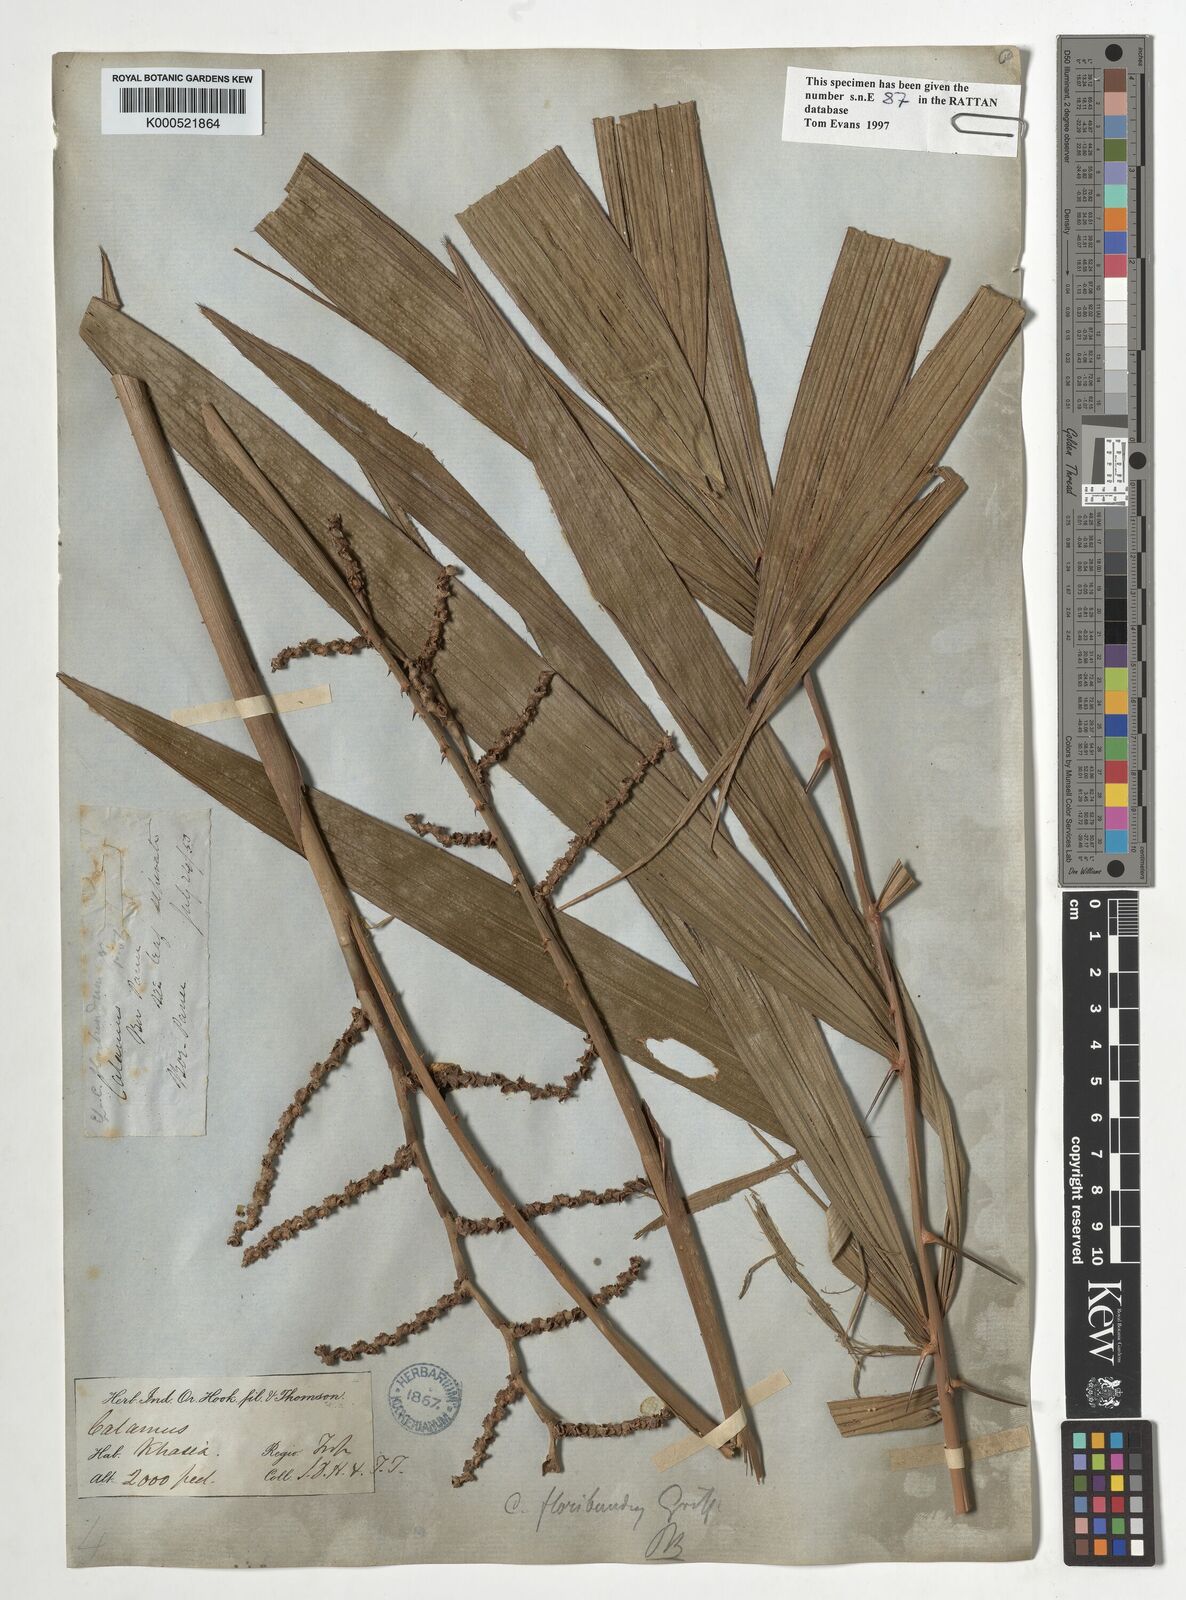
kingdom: Plantae
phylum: Tracheophyta
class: Liliopsida
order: Arecales
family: Arecaceae
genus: Calamus
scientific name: Calamus floribundus
